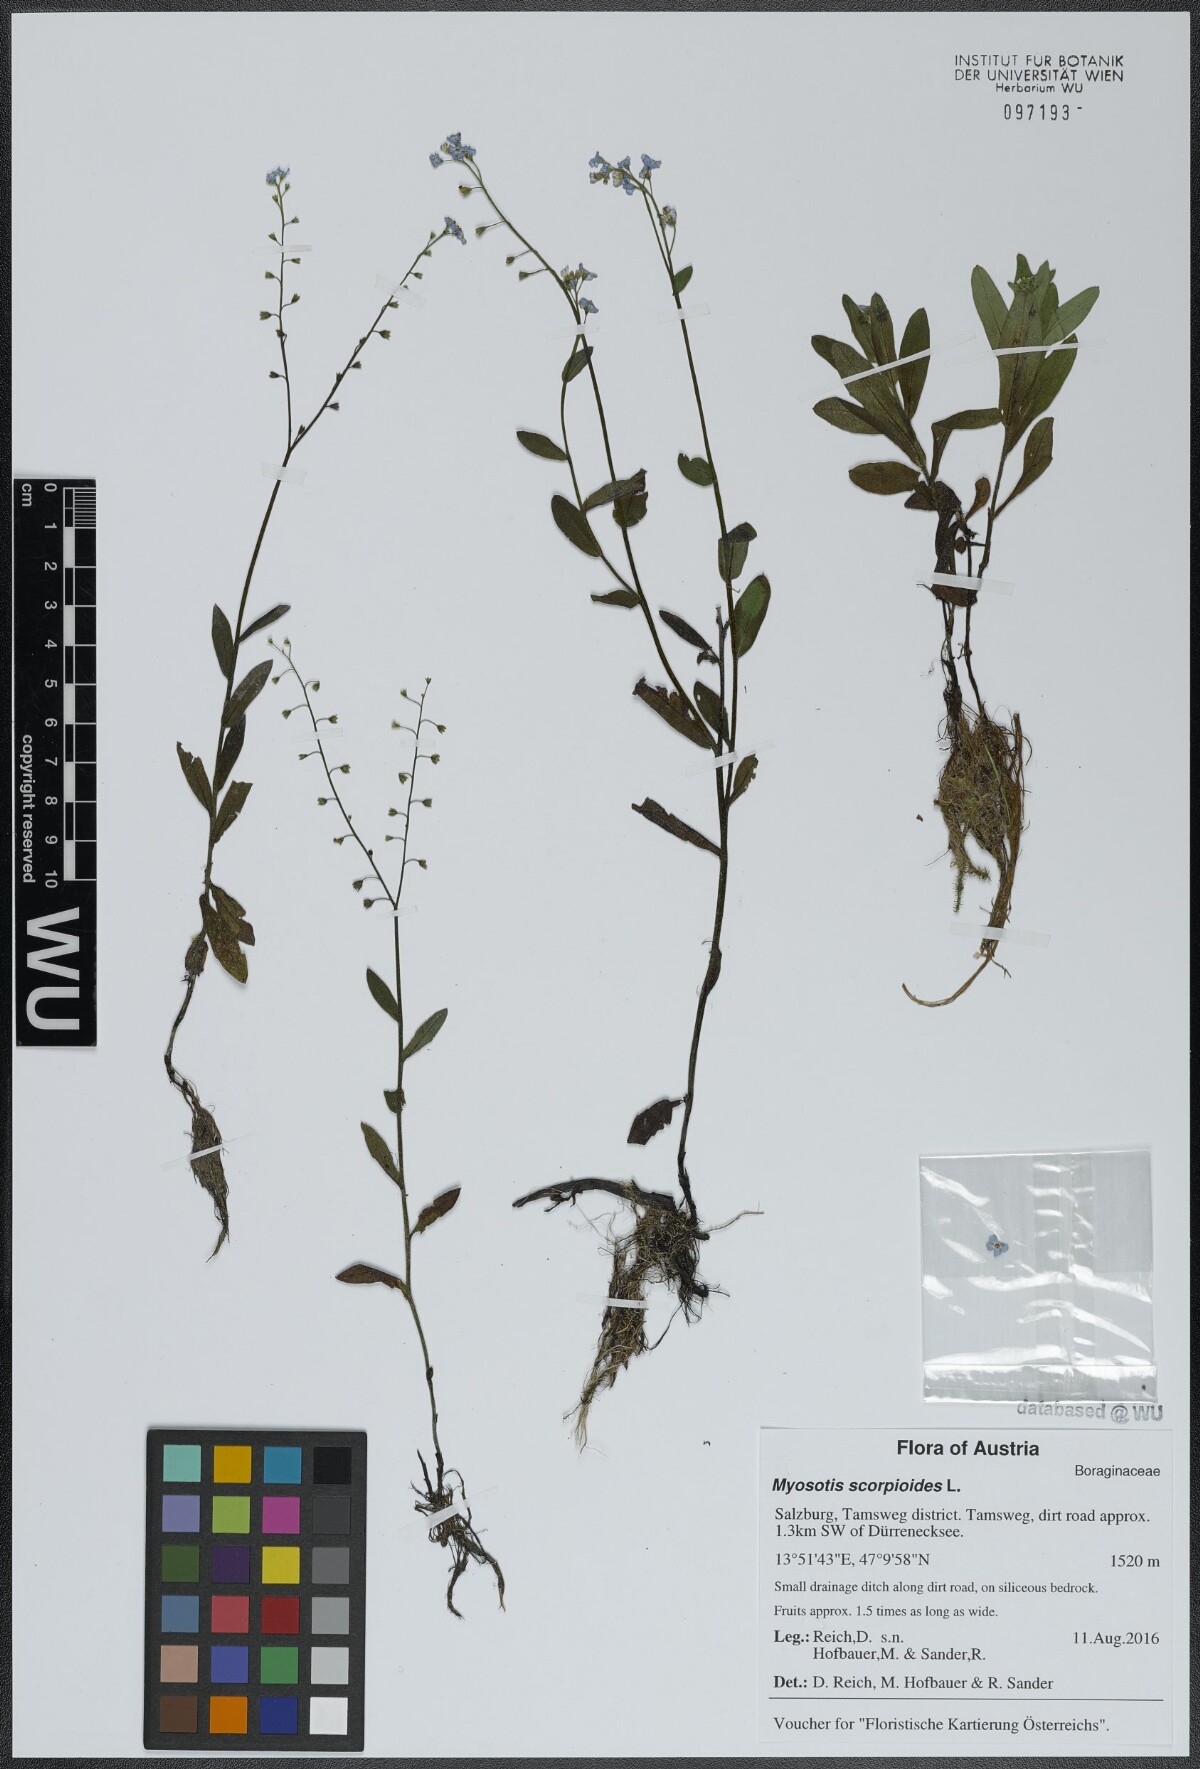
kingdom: Plantae
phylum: Tracheophyta
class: Magnoliopsida
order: Boraginales
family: Boraginaceae
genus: Myosotis
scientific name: Myosotis scorpioides
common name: Water forget-me-not
